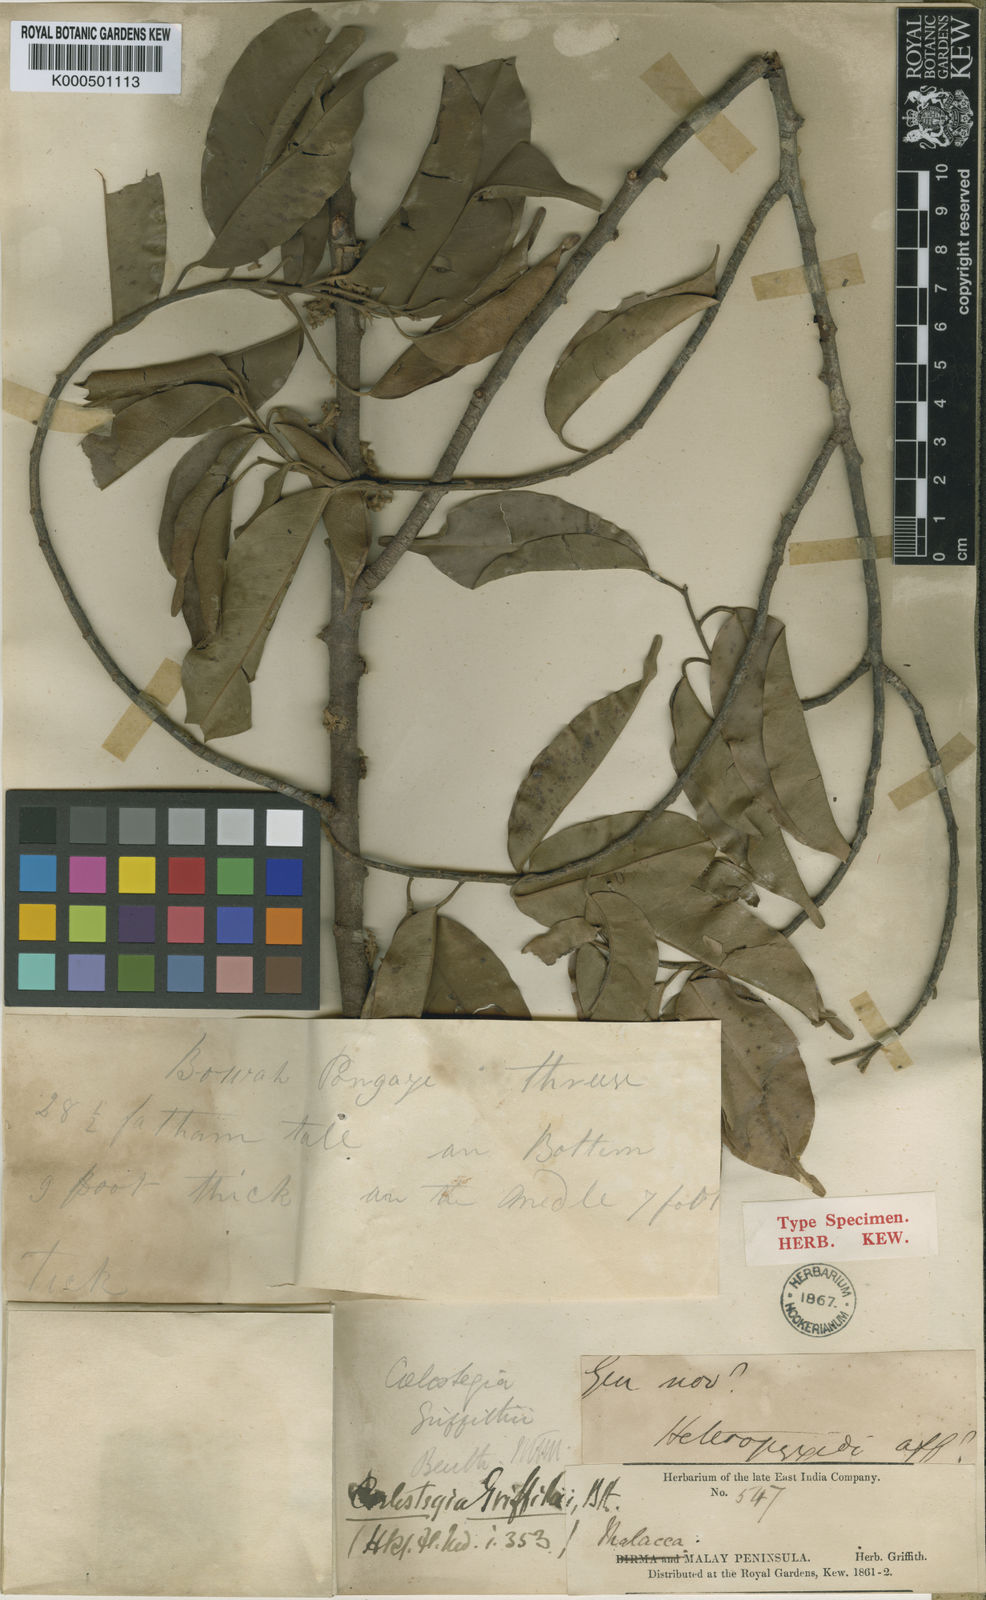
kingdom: Plantae
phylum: Tracheophyta
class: Magnoliopsida
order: Malvales
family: Malvaceae
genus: Coelostegia
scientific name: Coelostegia griffithii
